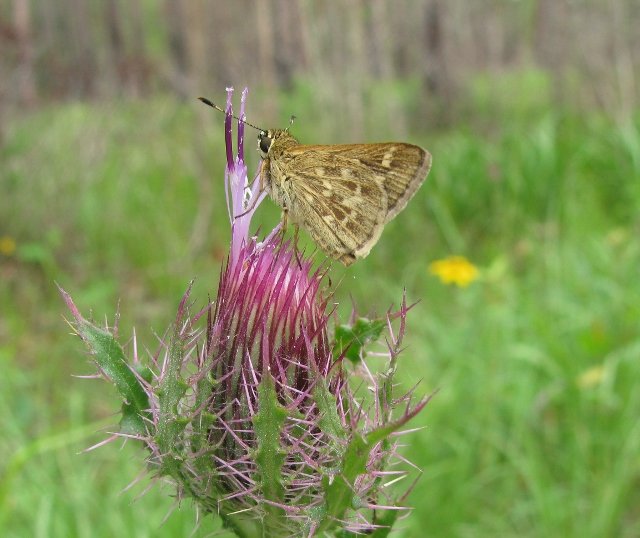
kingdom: Animalia
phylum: Arthropoda
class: Insecta
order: Lepidoptera
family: Hesperiidae
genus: Mastor
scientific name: Mastor carolina
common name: Reversed Roadside-skipper
